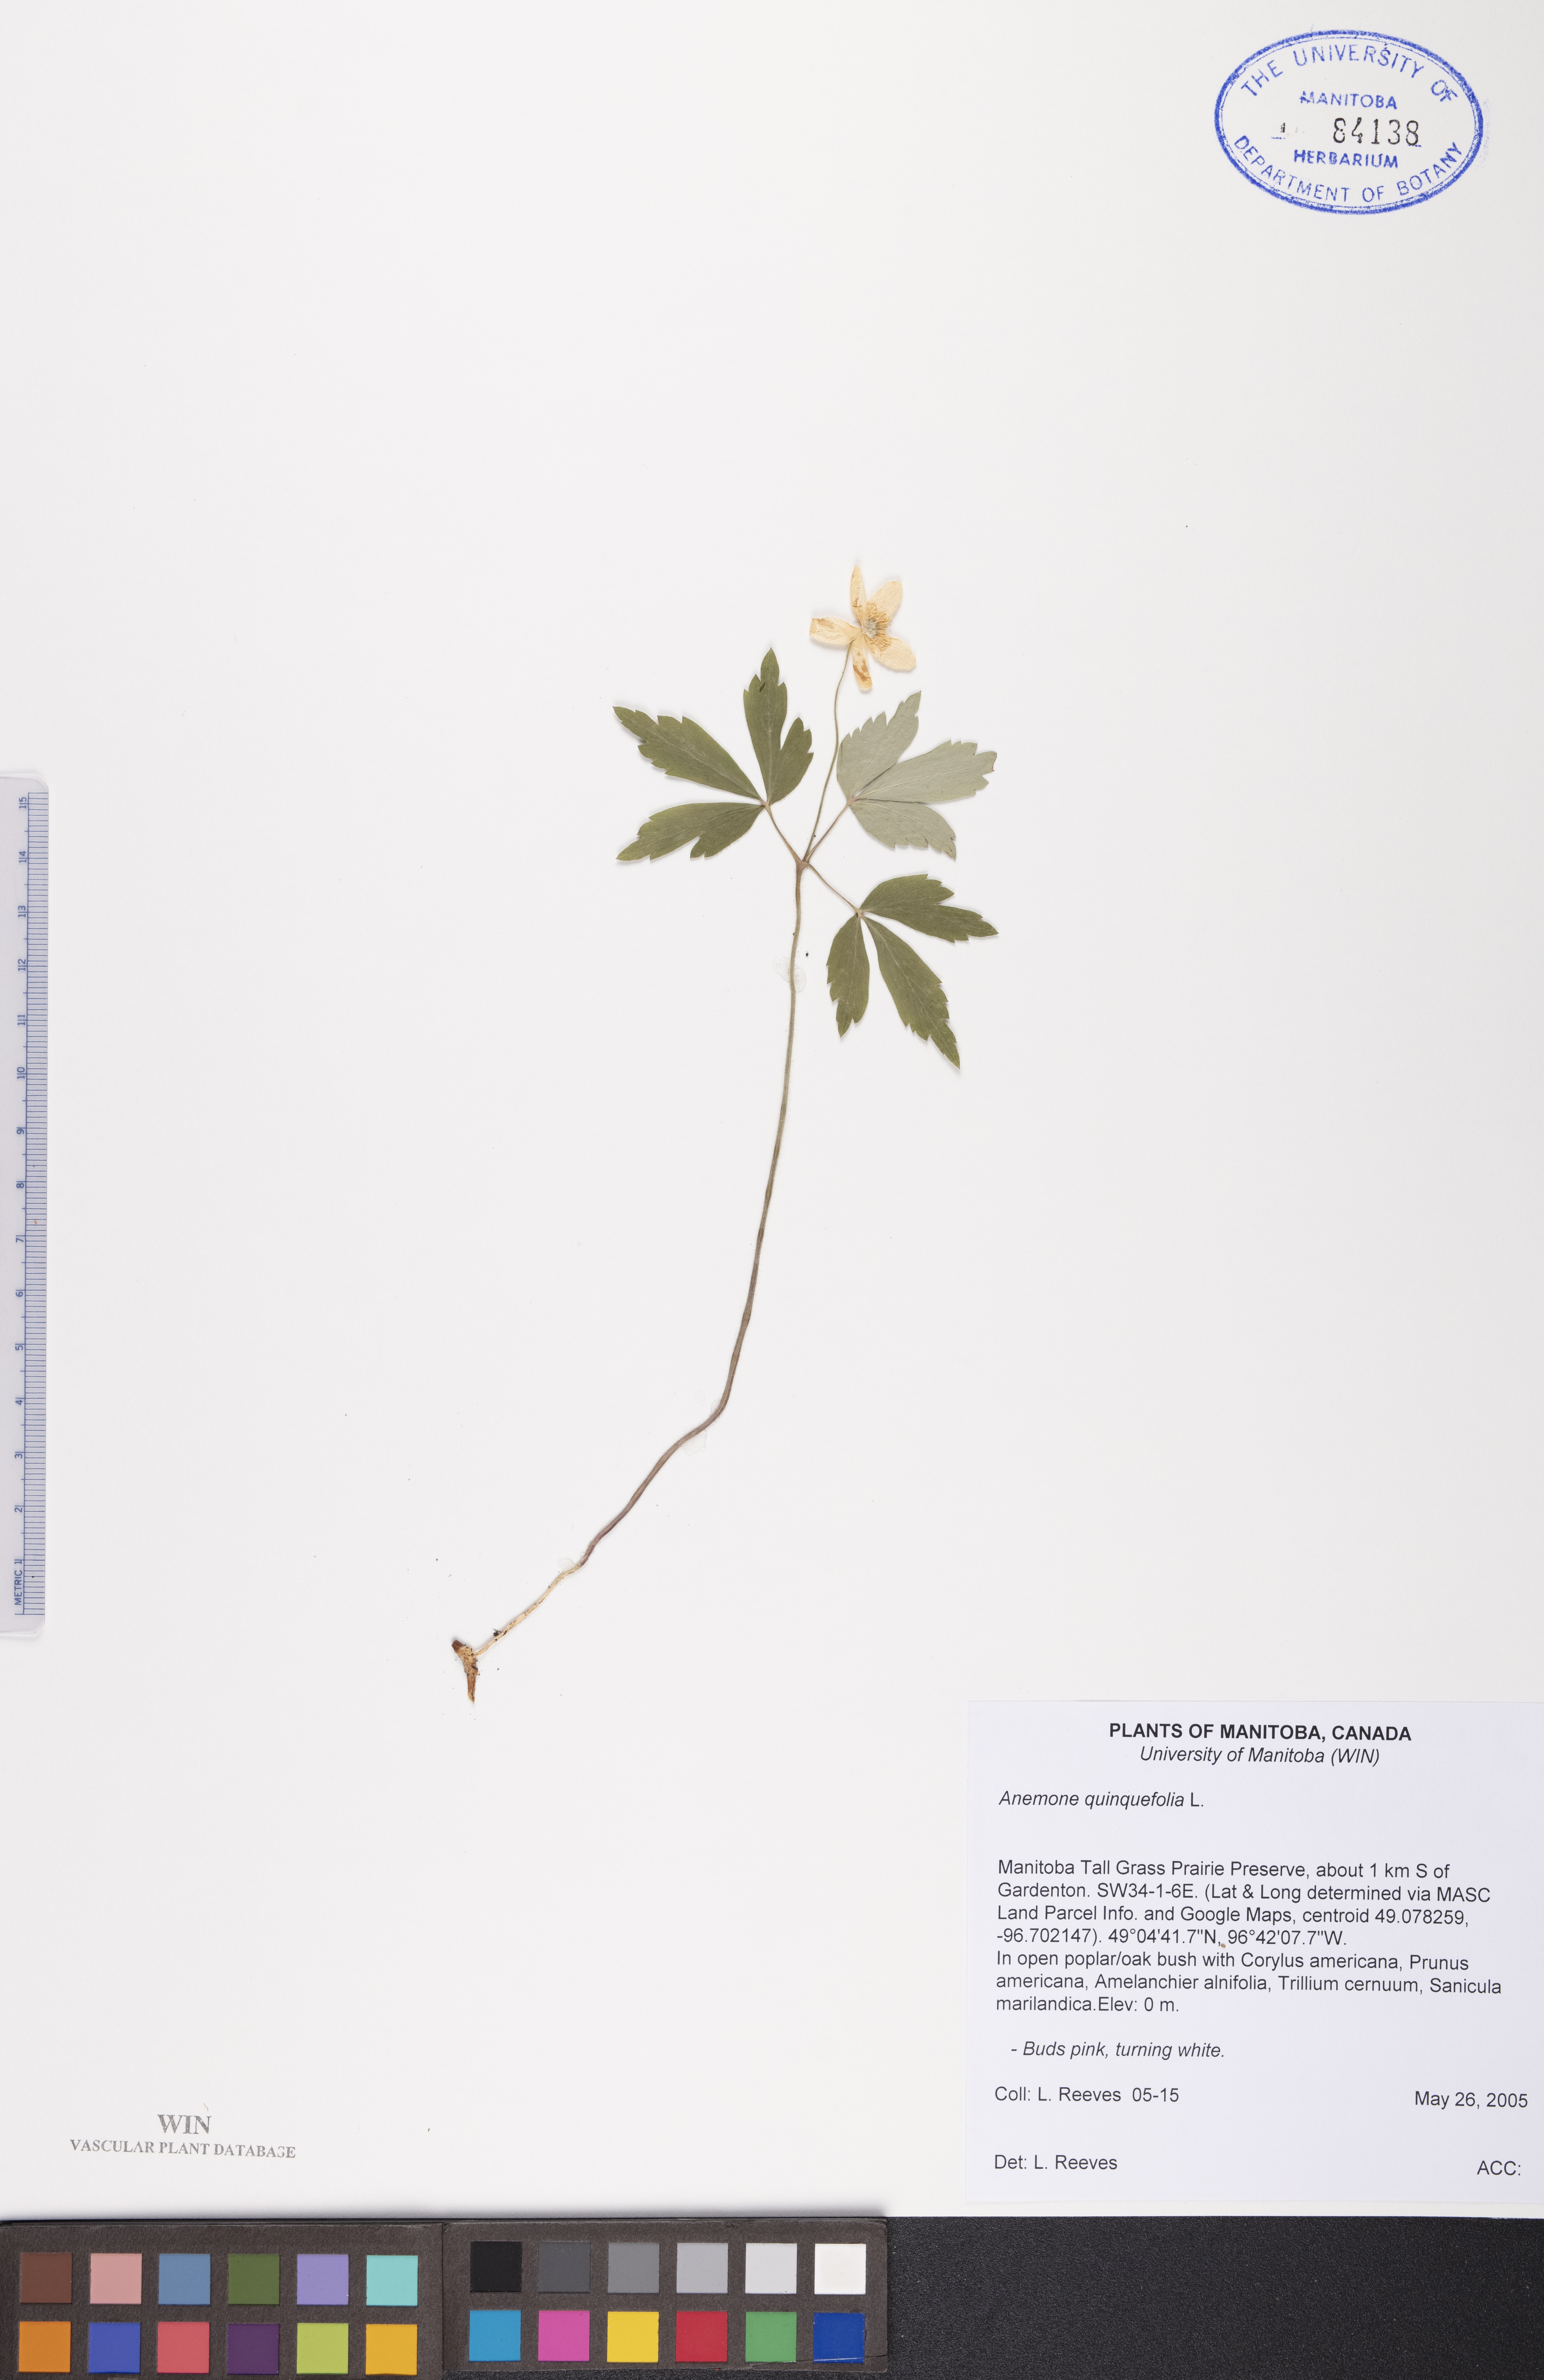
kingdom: Plantae
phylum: Tracheophyta
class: Magnoliopsida
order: Ranunculales
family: Ranunculaceae
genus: Anemone
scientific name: Anemone quinquefolia
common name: Wood anemone
